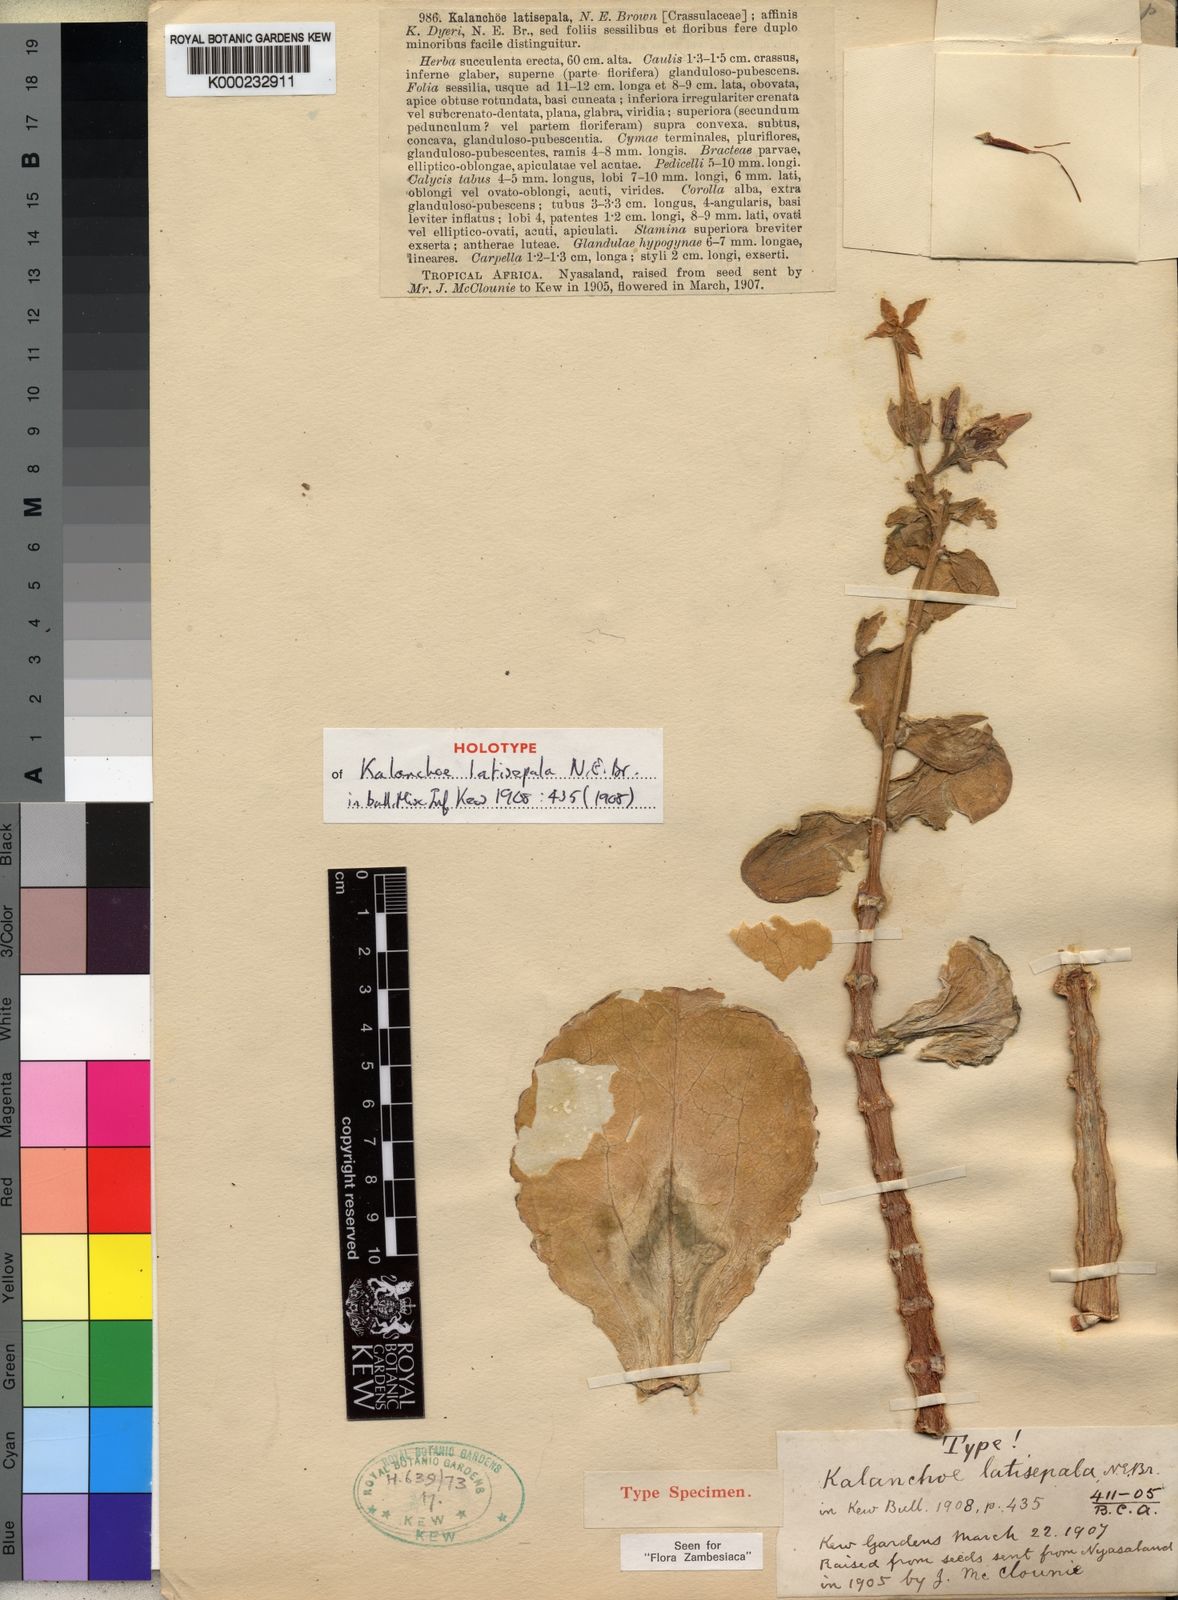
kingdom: Plantae
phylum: Tracheophyta
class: Magnoliopsida
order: Saxifragales
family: Crassulaceae
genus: Kalanchoe
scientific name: Kalanchoe latisepala
